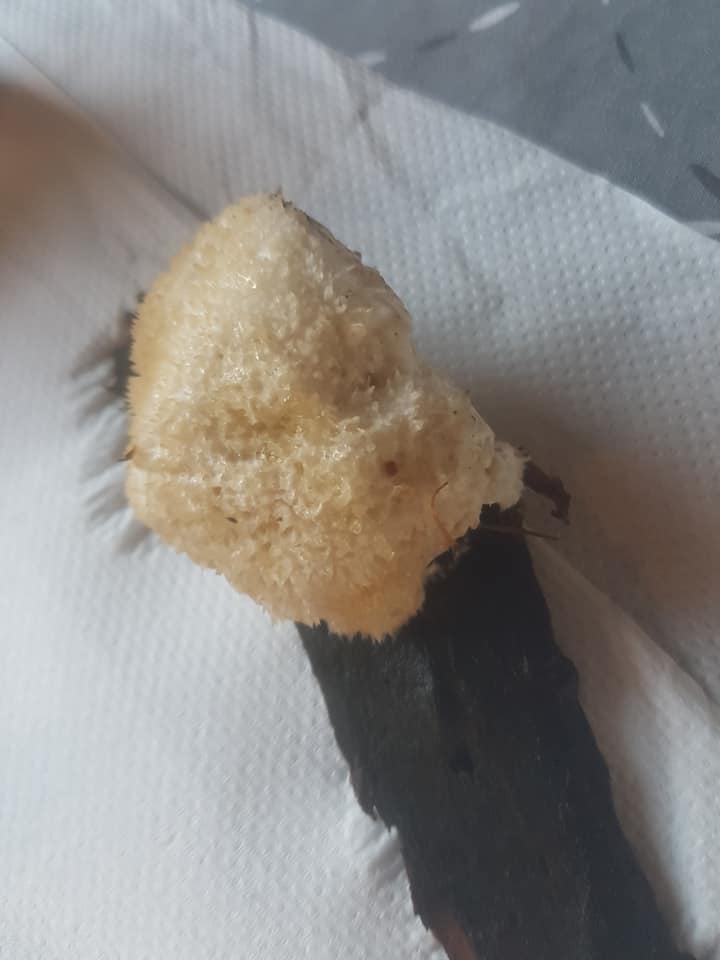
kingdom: Fungi
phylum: Basidiomycota
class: Agaricomycetes
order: Polyporales
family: Dacryobolaceae
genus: Postia
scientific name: Postia ptychogaster
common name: støvende kødporesvamp
